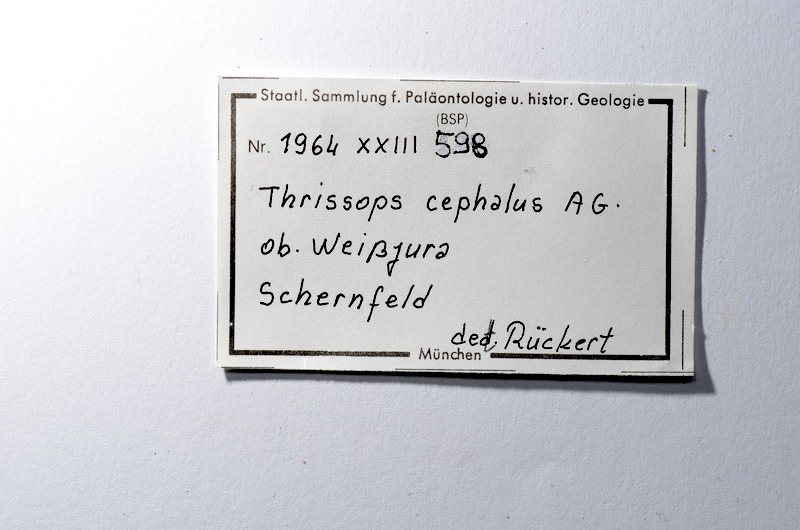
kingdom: Animalia
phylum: Chordata
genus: Thrissops
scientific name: Thrissops cephalus
